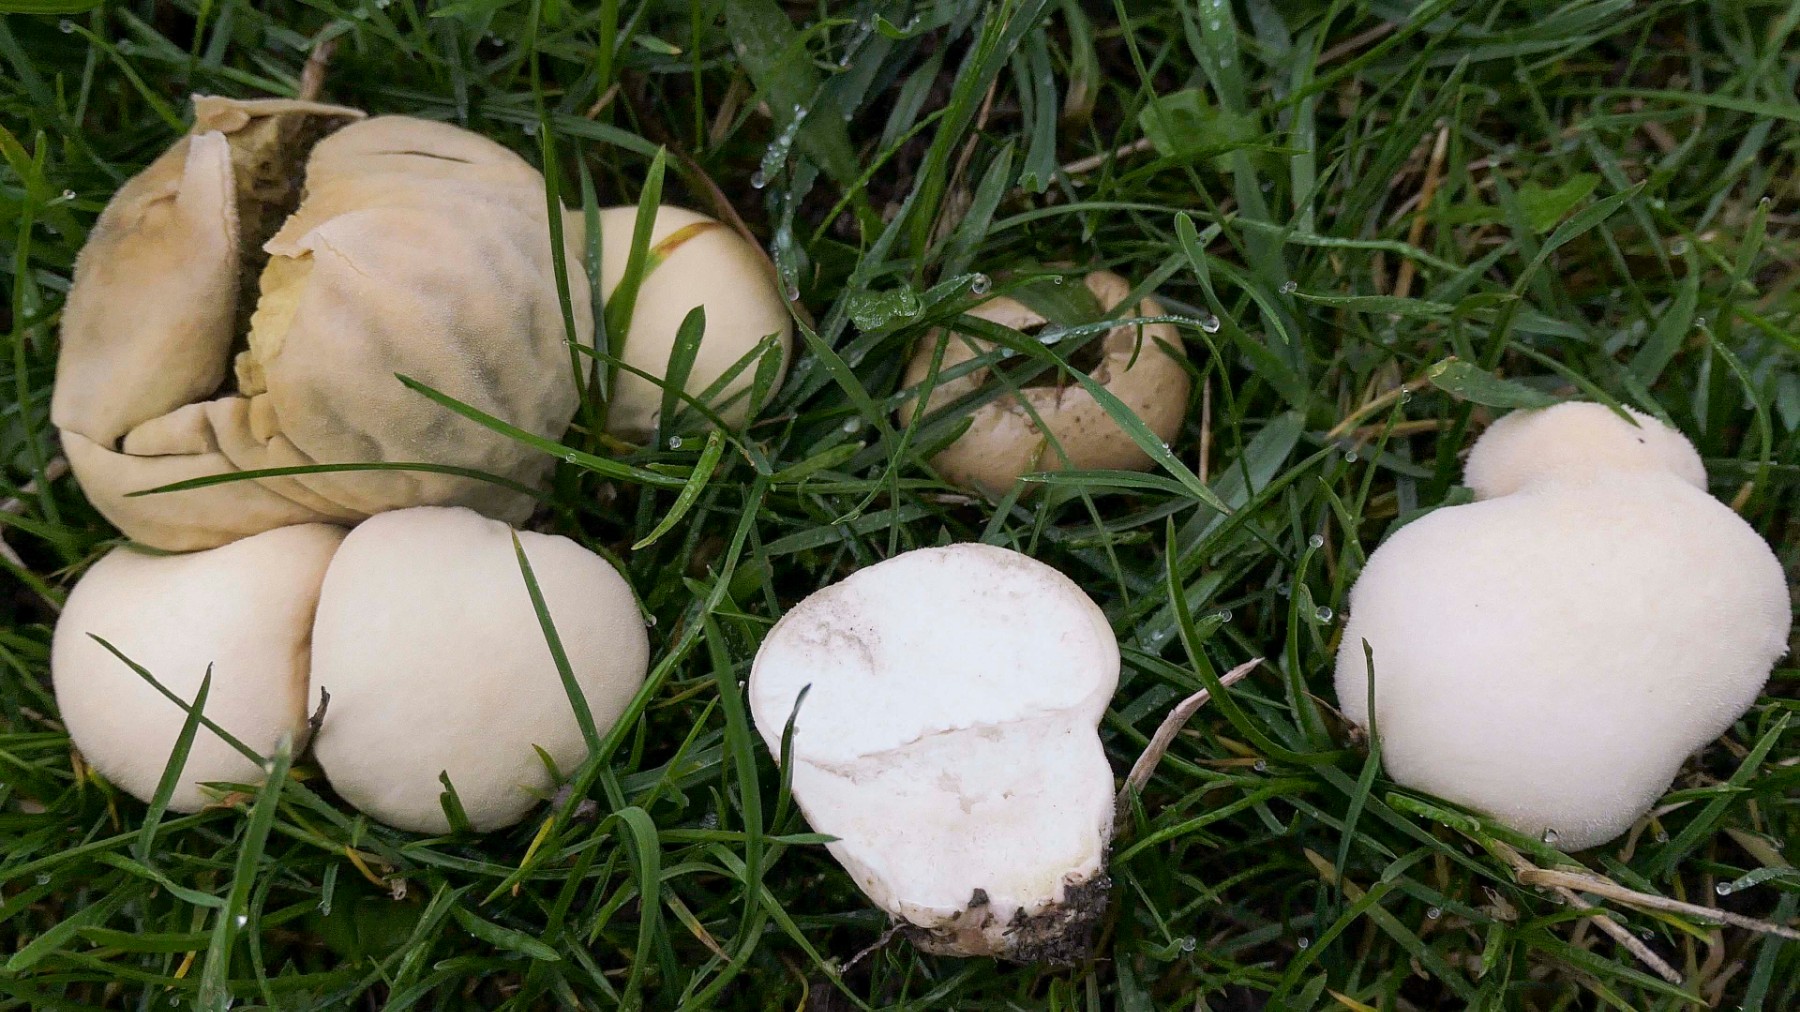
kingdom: Fungi
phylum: Basidiomycota
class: Agaricomycetes
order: Agaricales
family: Lycoperdaceae
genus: Lycoperdon
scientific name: Lycoperdon pratense
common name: flad støvbold
